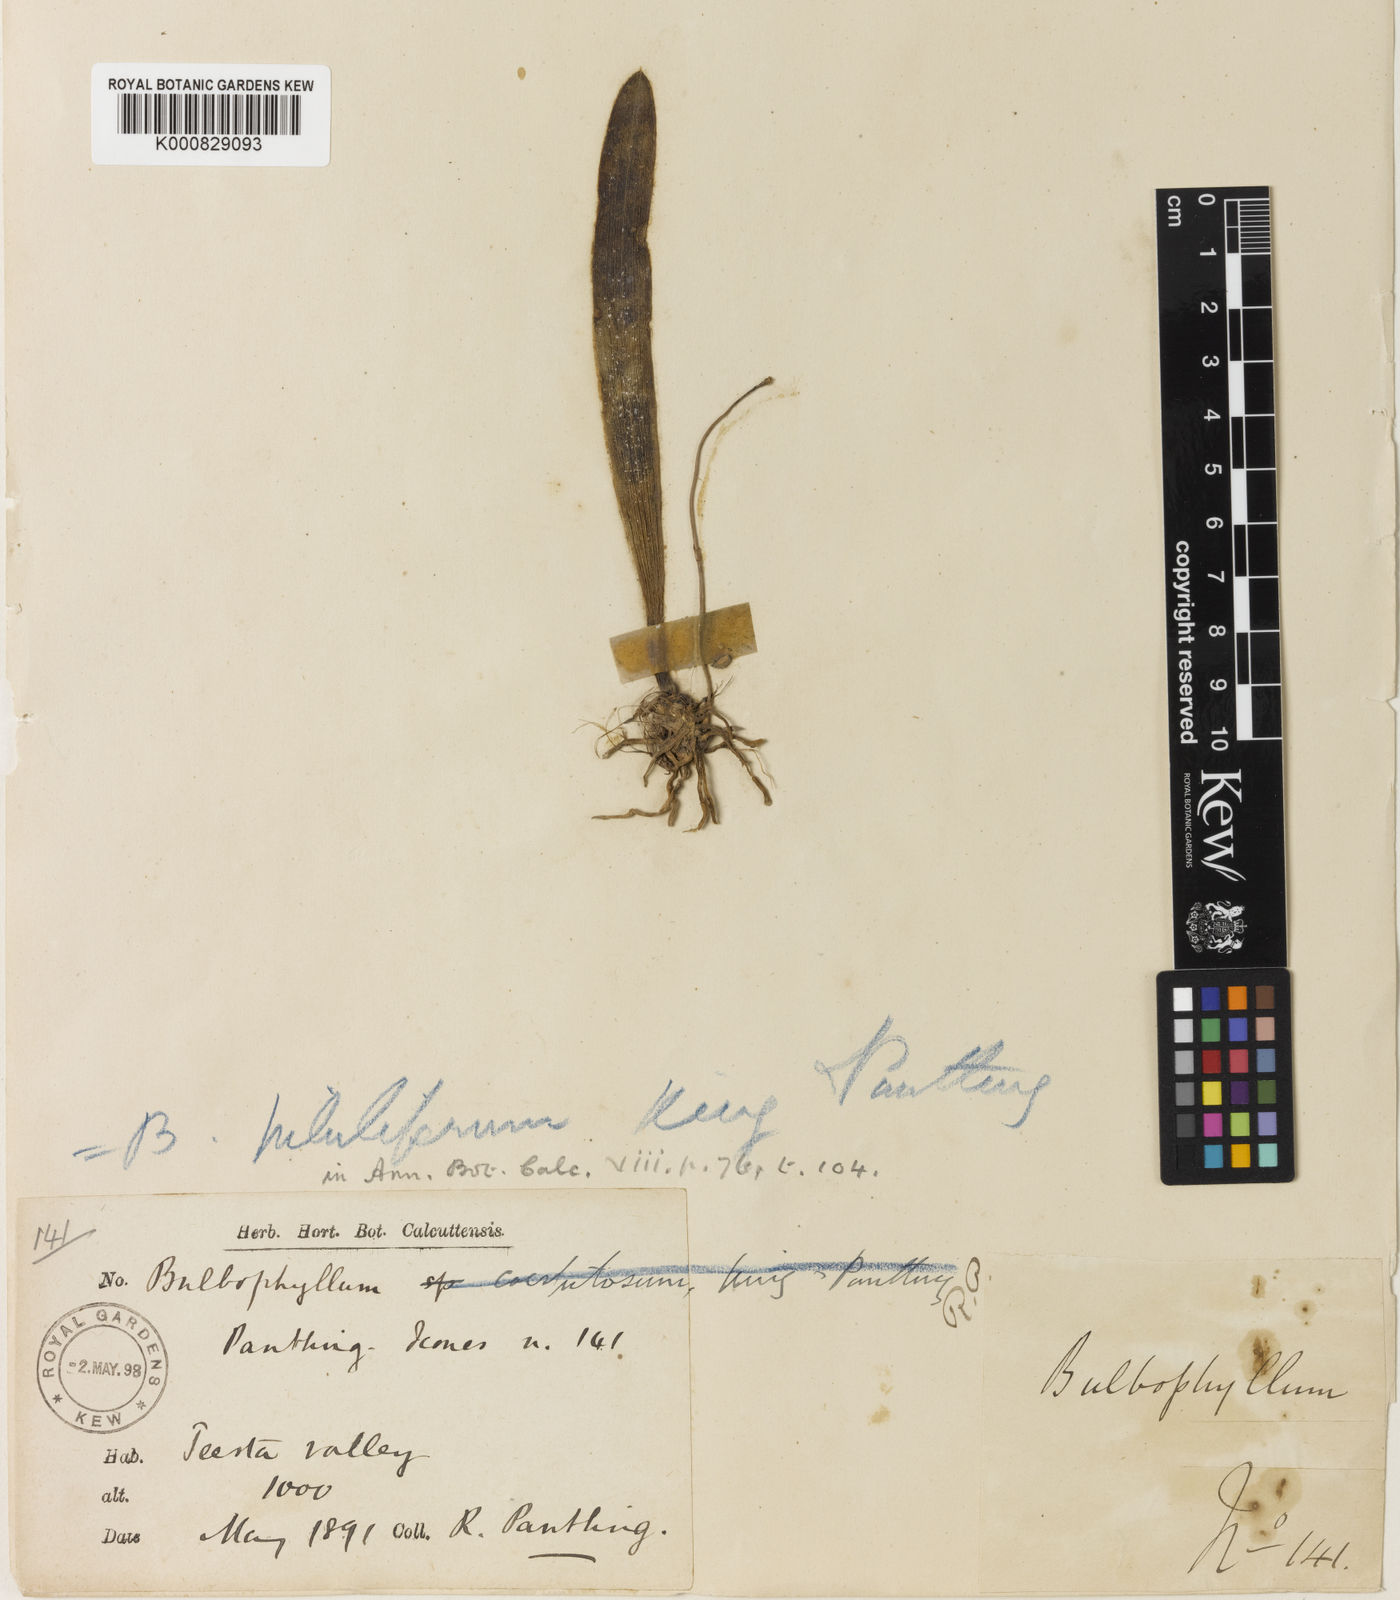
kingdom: Plantae
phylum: Tracheophyta
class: Liliopsida
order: Asparagales
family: Orchidaceae
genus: Bulbophyllum
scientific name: Bulbophyllum piluliferum
